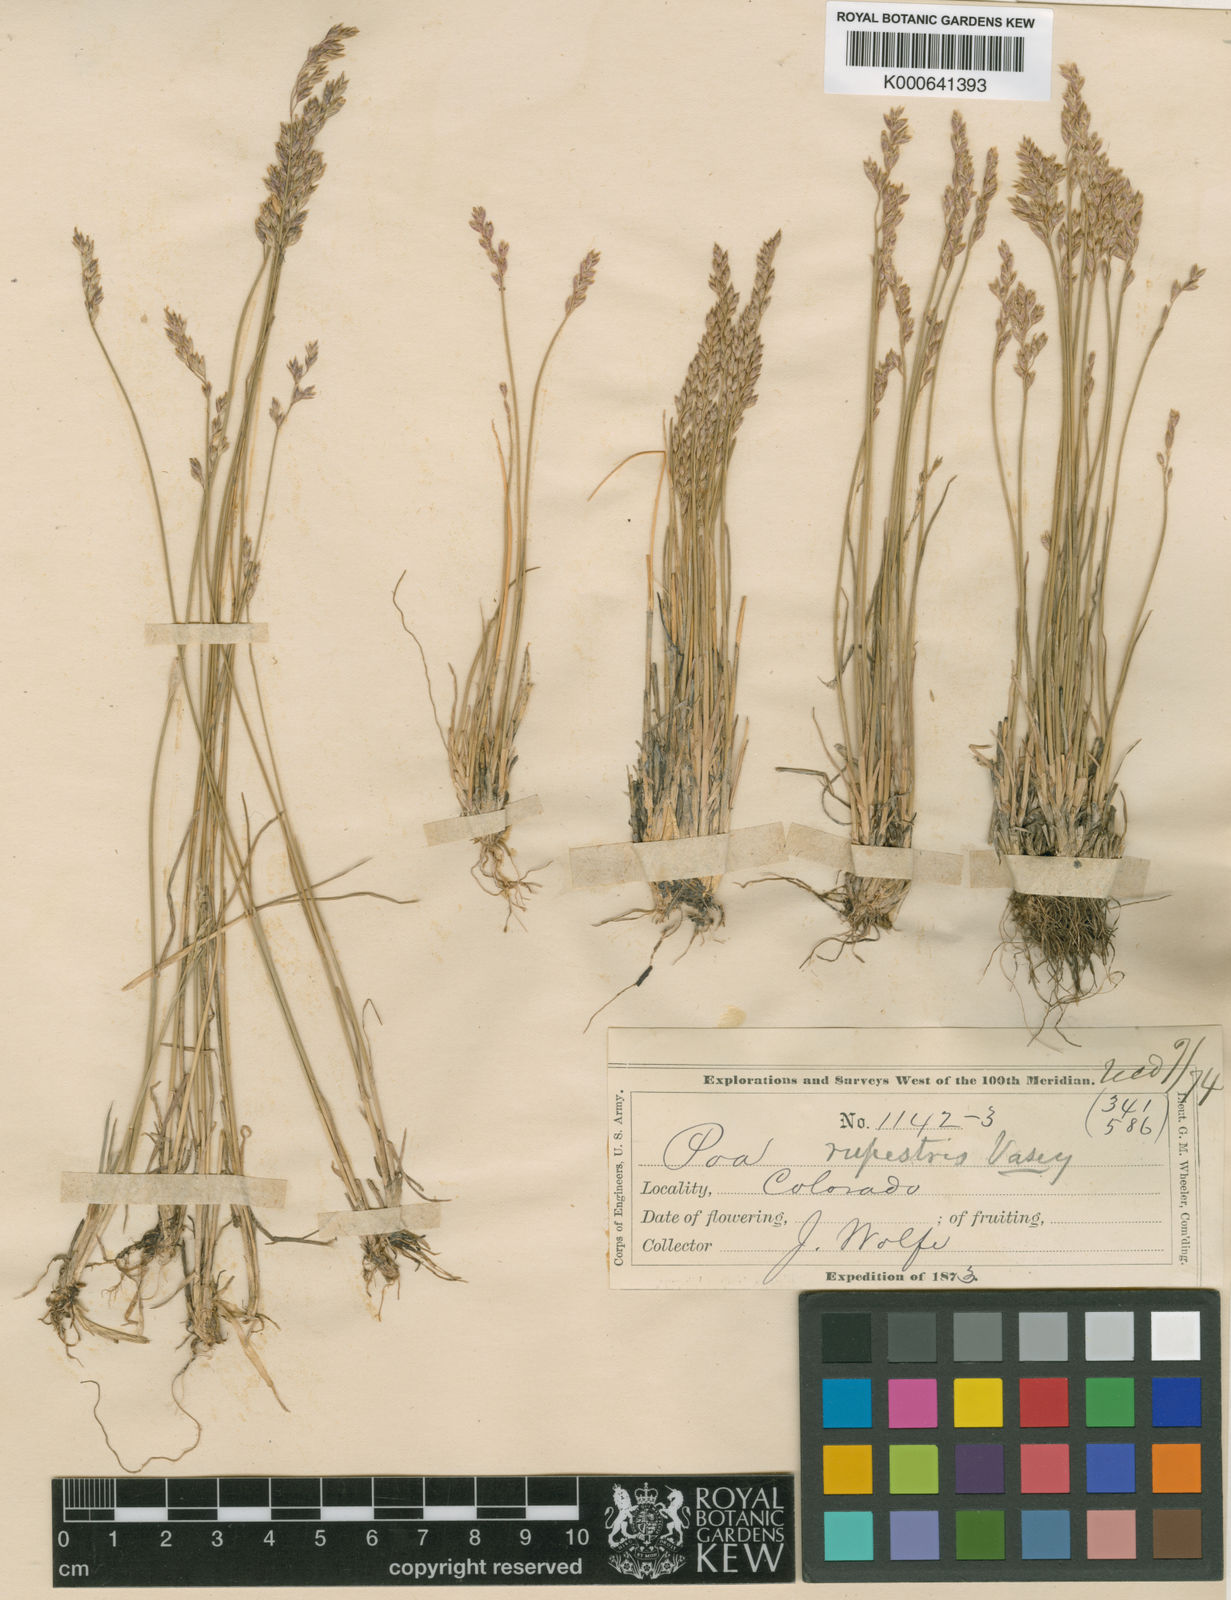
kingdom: Plantae
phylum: Tracheophyta
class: Liliopsida
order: Poales
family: Poaceae
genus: Poa
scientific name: Poa glauca
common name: Glaucous bluegrass
